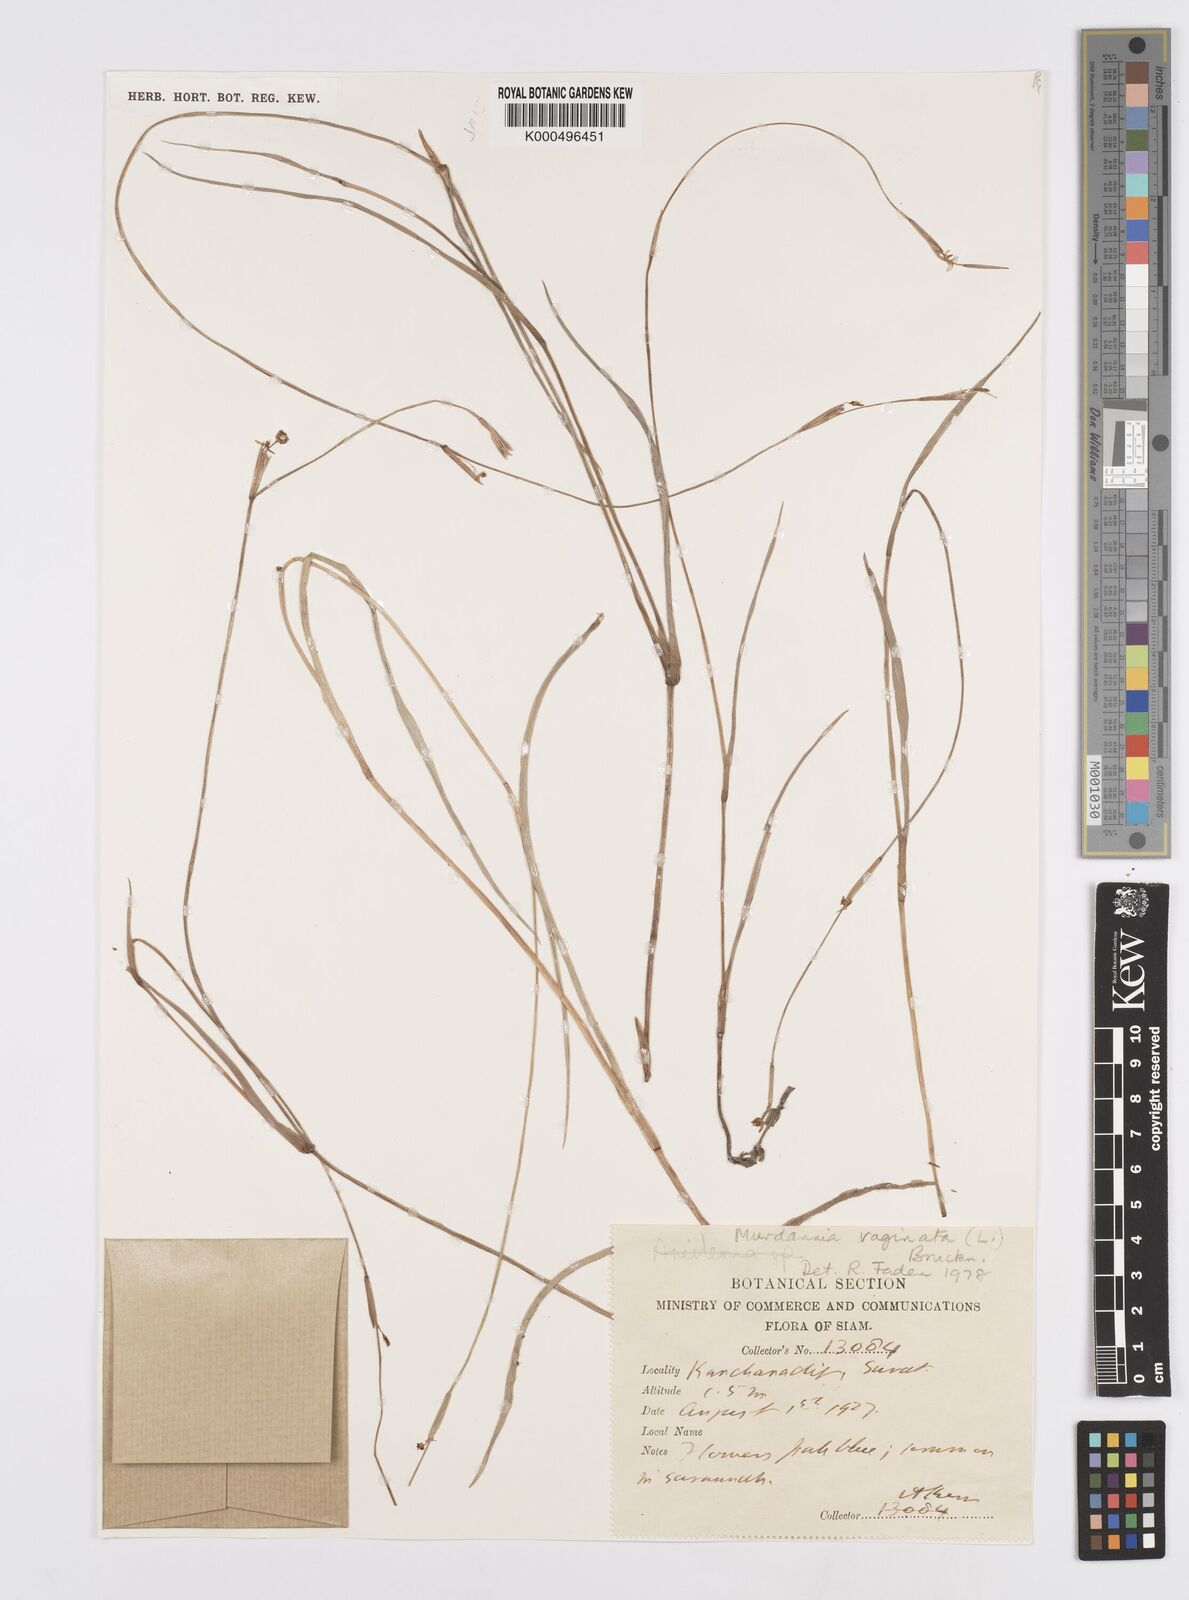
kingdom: Plantae
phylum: Tracheophyta
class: Liliopsida
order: Commelinales
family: Commelinaceae
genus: Murdannia
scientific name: Murdannia
